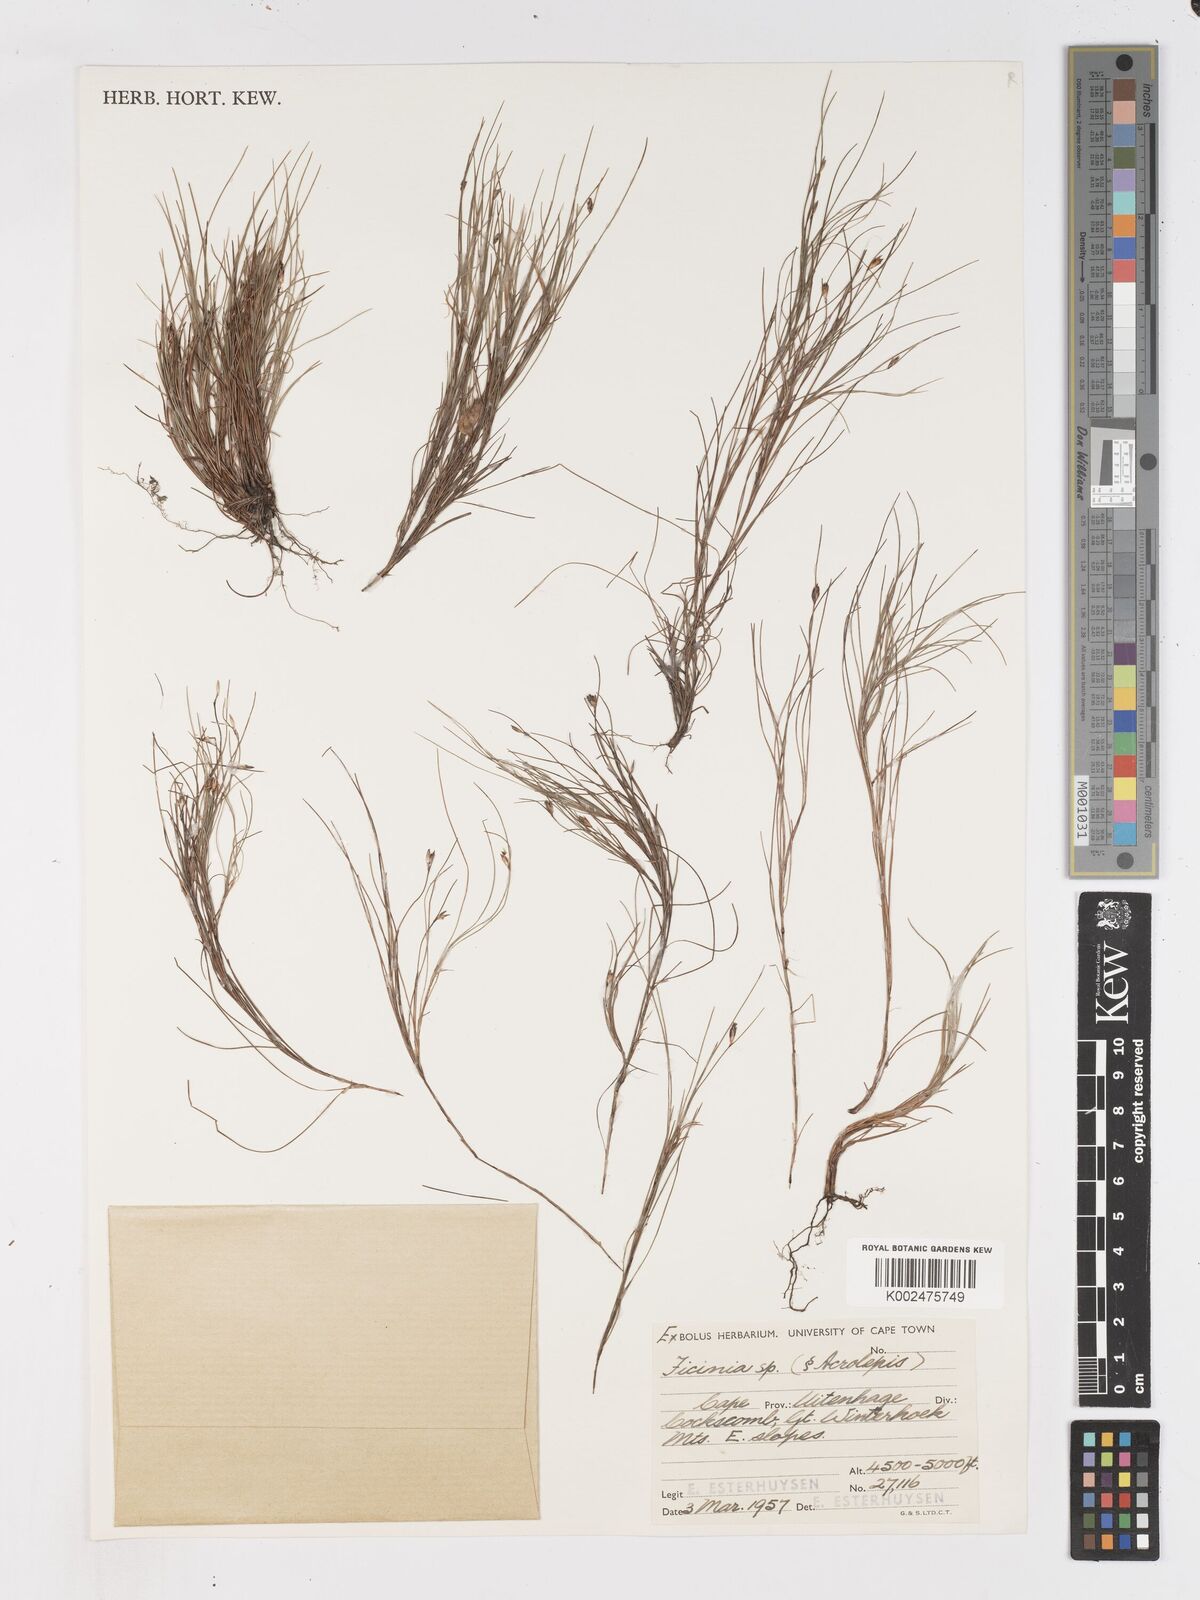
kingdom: Plantae
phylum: Tracheophyta
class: Liliopsida
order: Poales
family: Cyperaceae
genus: Ficinia
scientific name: Ficinia trichodes
